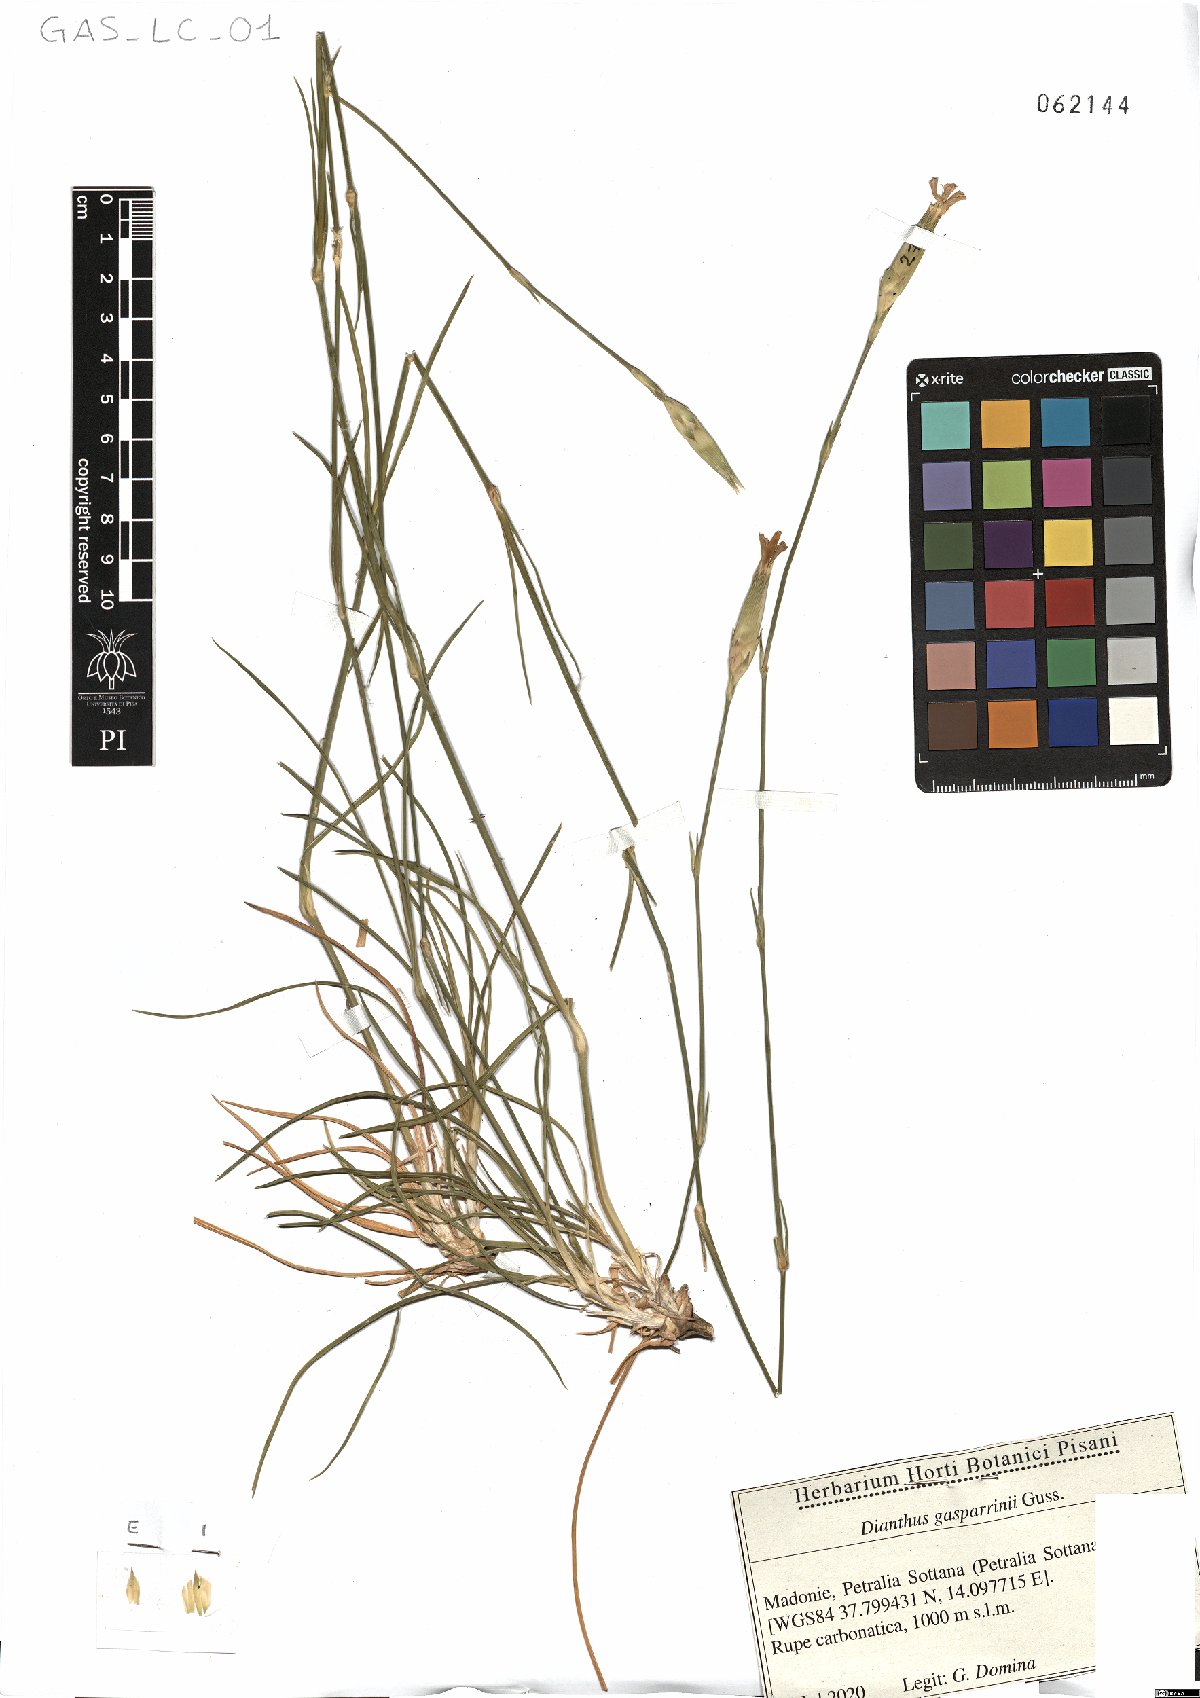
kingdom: Plantae
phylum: Tracheophyta
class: Magnoliopsida
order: Caryophyllales
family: Caryophyllaceae
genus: Dianthus
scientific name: Dianthus gasparrinii
